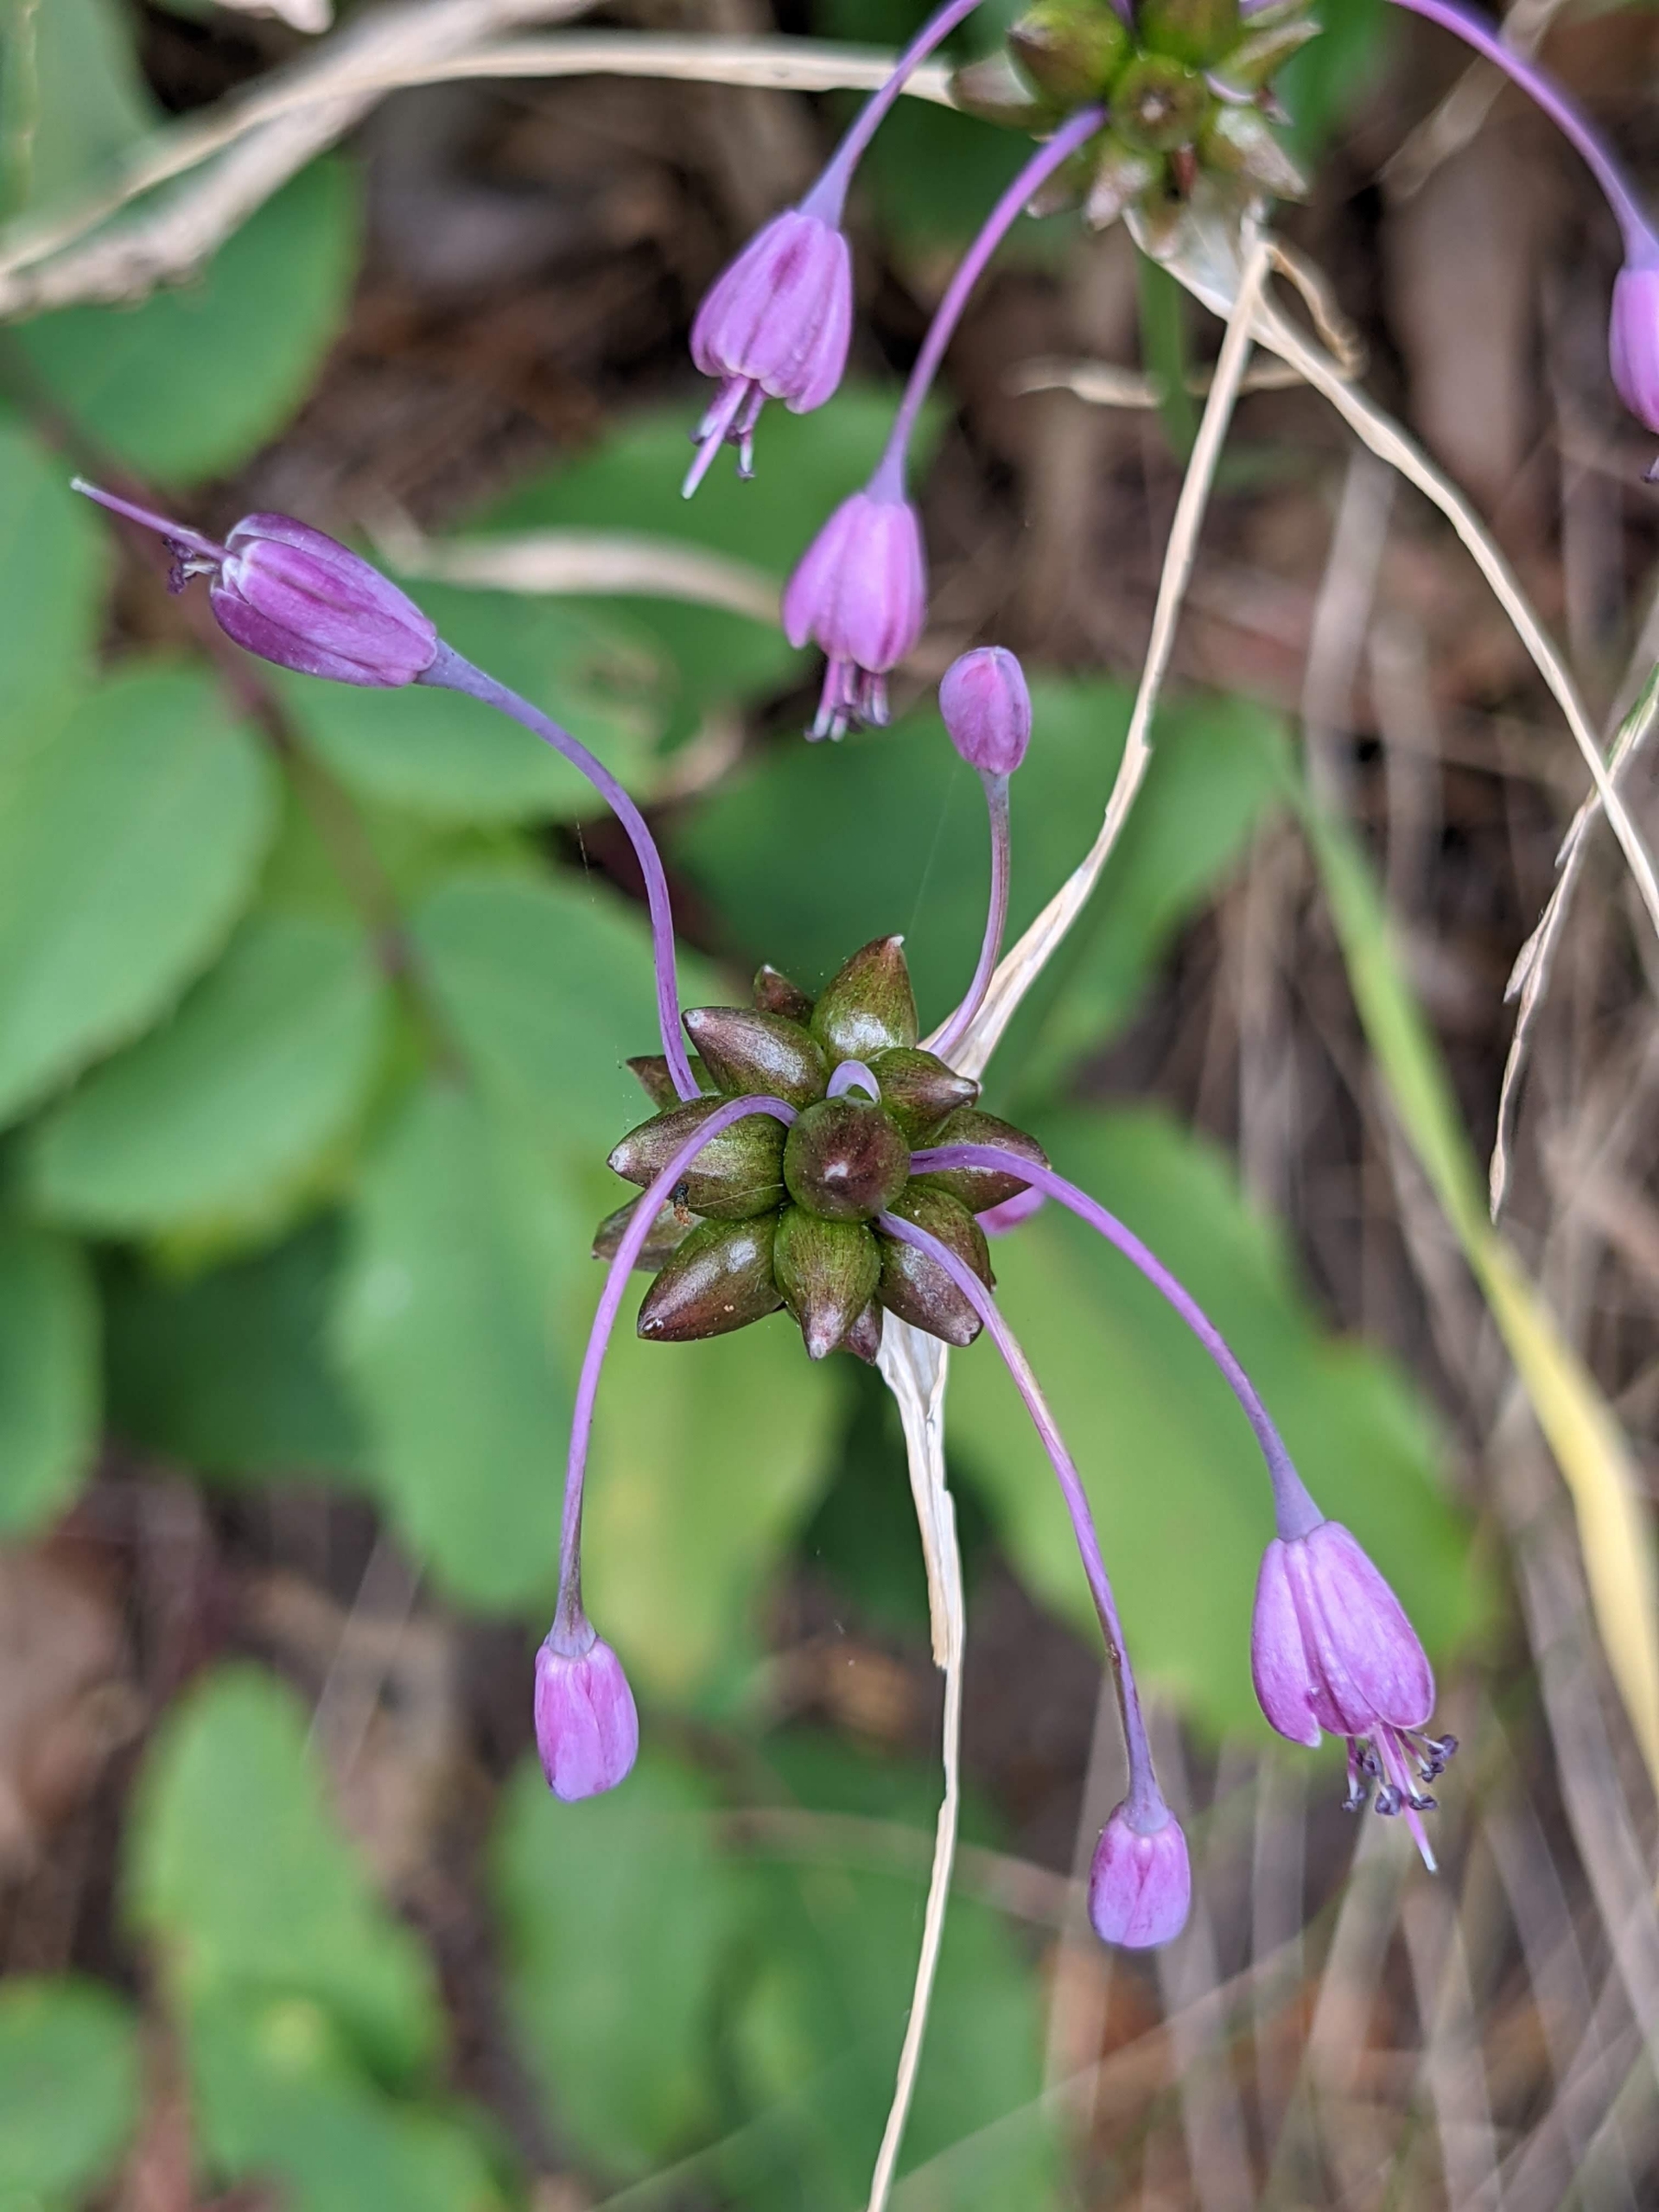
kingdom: Plantae
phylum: Tracheophyta
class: Liliopsida
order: Asparagales
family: Amaryllidaceae
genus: Allium
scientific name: Allium carinatum
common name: Kølet løg
